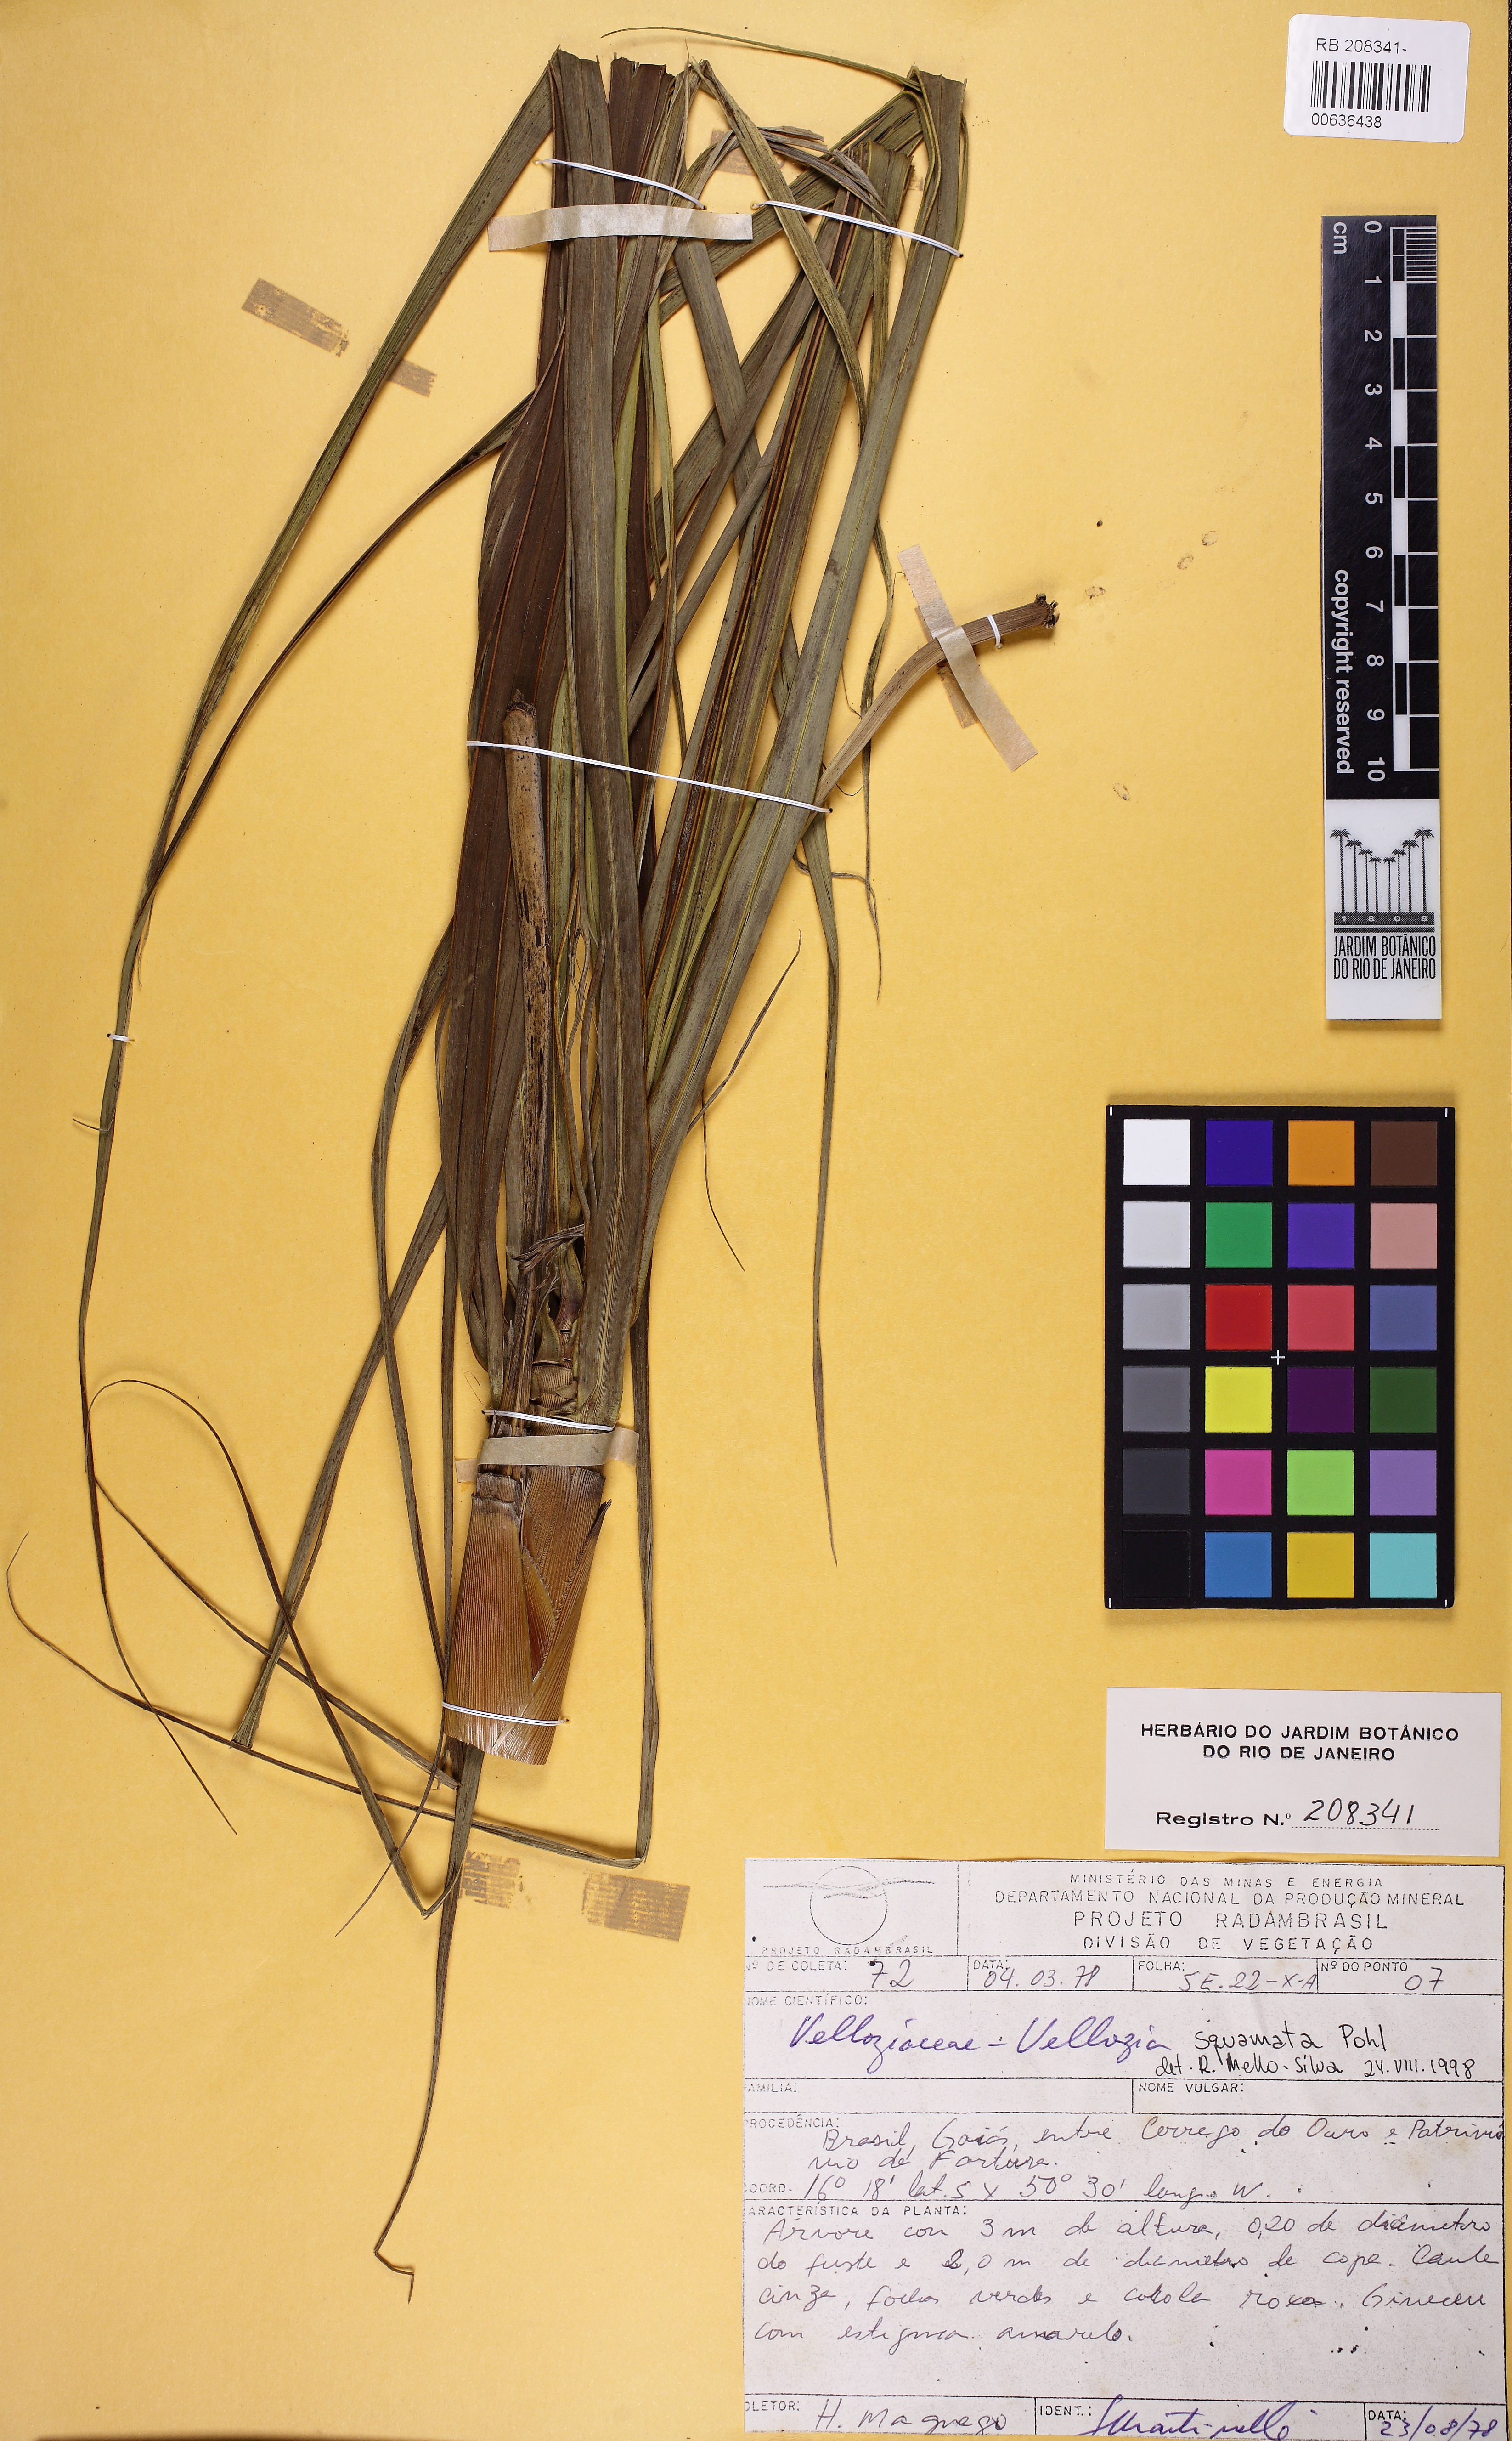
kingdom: Plantae
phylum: Tracheophyta
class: Liliopsida
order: Pandanales
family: Velloziaceae
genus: Vellozia
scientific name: Vellozia squamata
